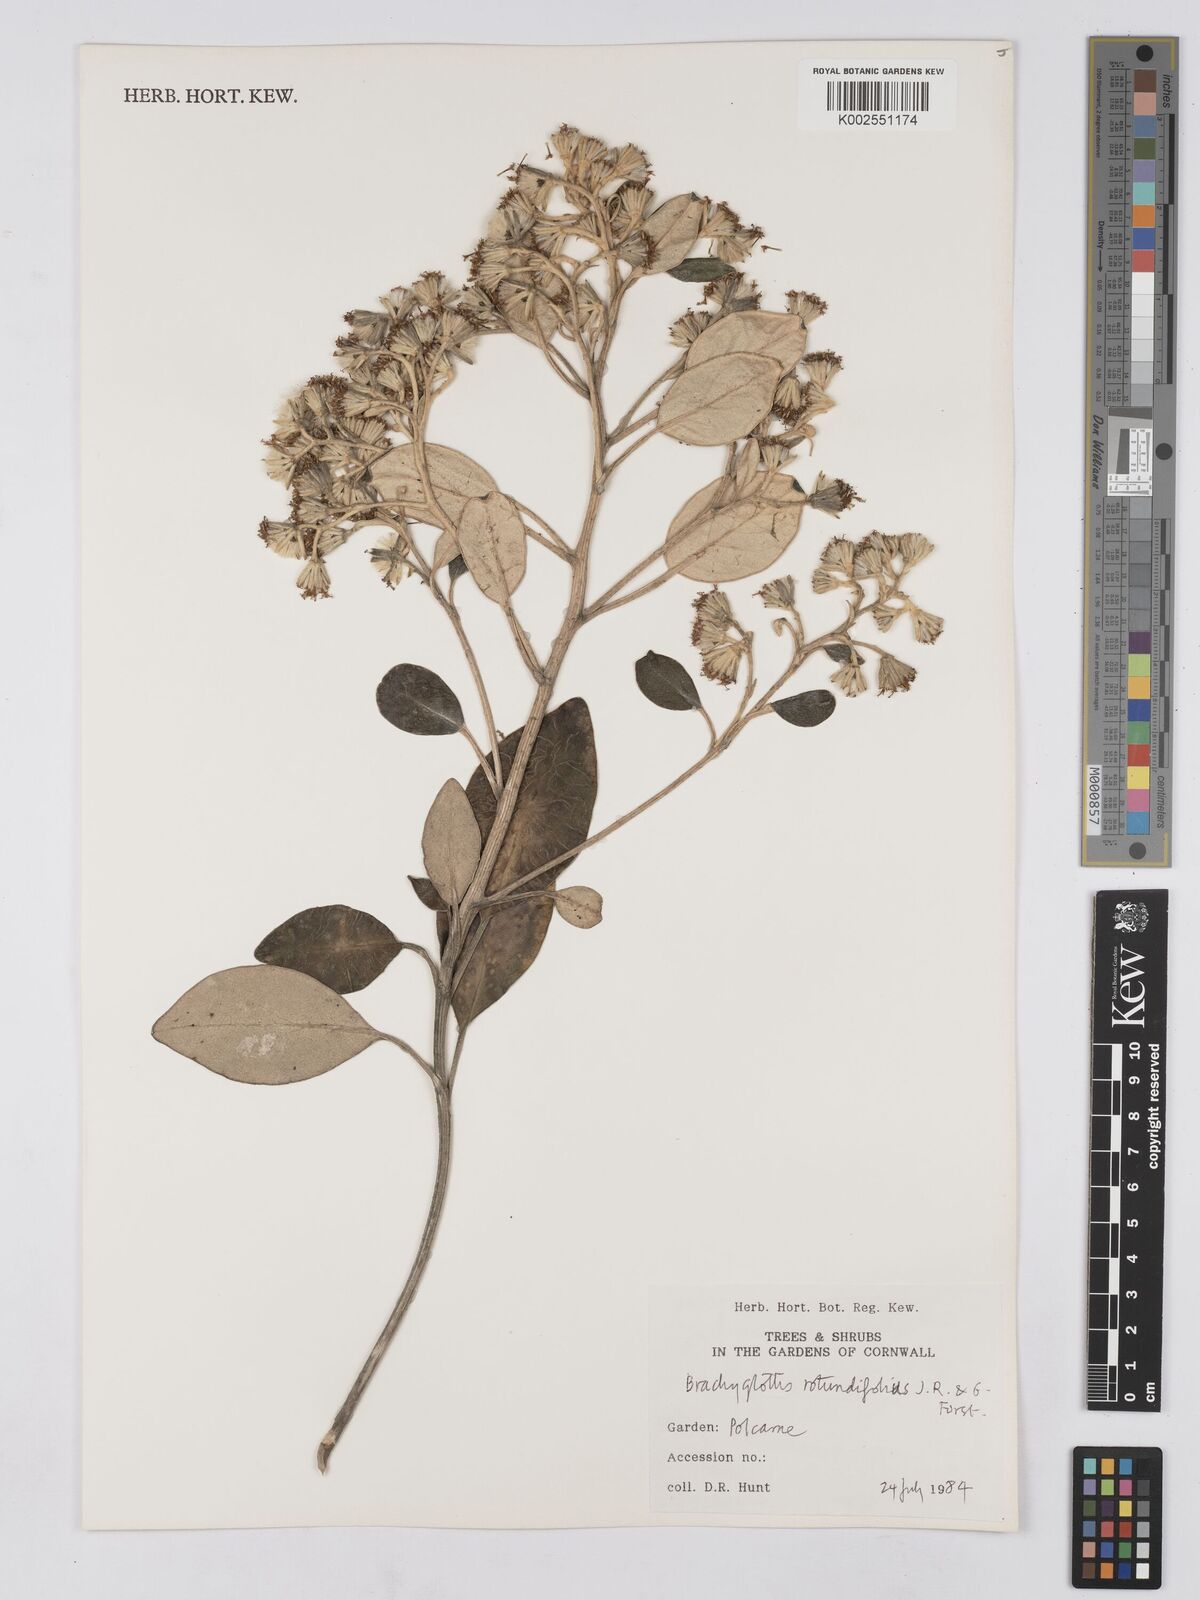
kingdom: Plantae
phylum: Tracheophyta
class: Magnoliopsida
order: Asterales
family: Asteraceae
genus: Brachyglottis
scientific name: Brachyglottis rotundifolia
